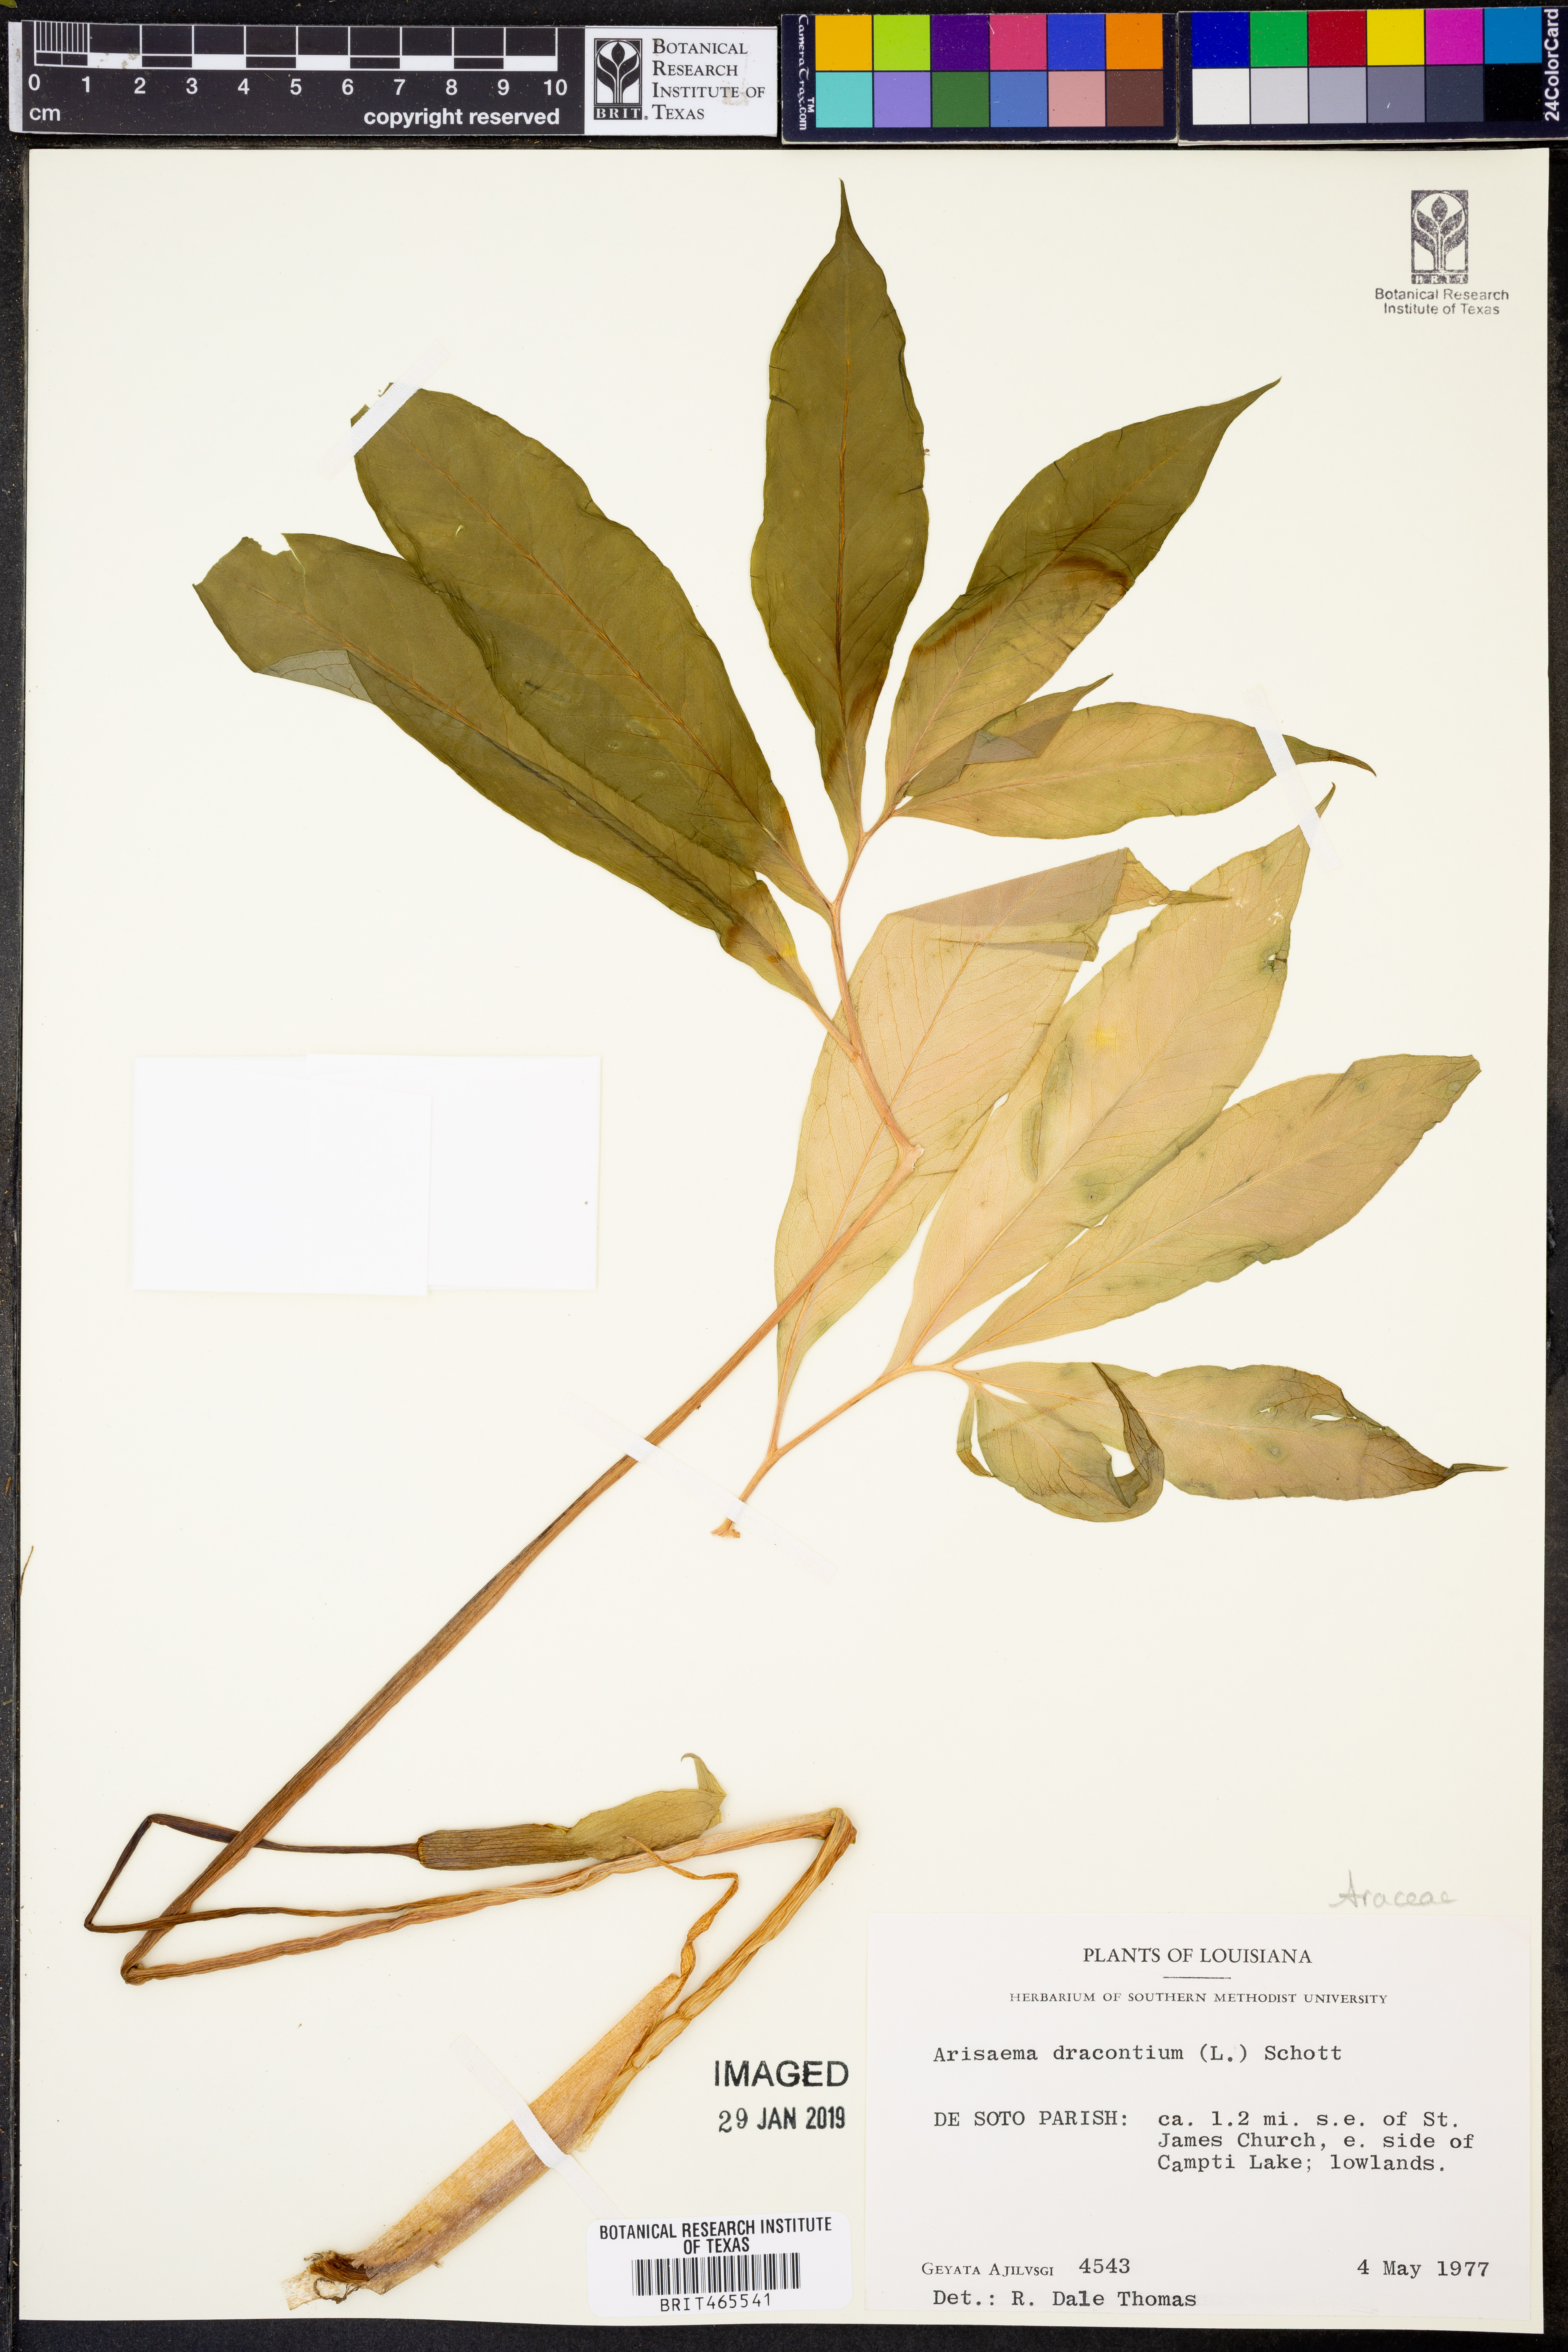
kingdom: Plantae
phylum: Tracheophyta
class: Liliopsida
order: Alismatales
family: Araceae
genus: Arisaema
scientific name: Arisaema dracontium
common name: Dragon-arum
